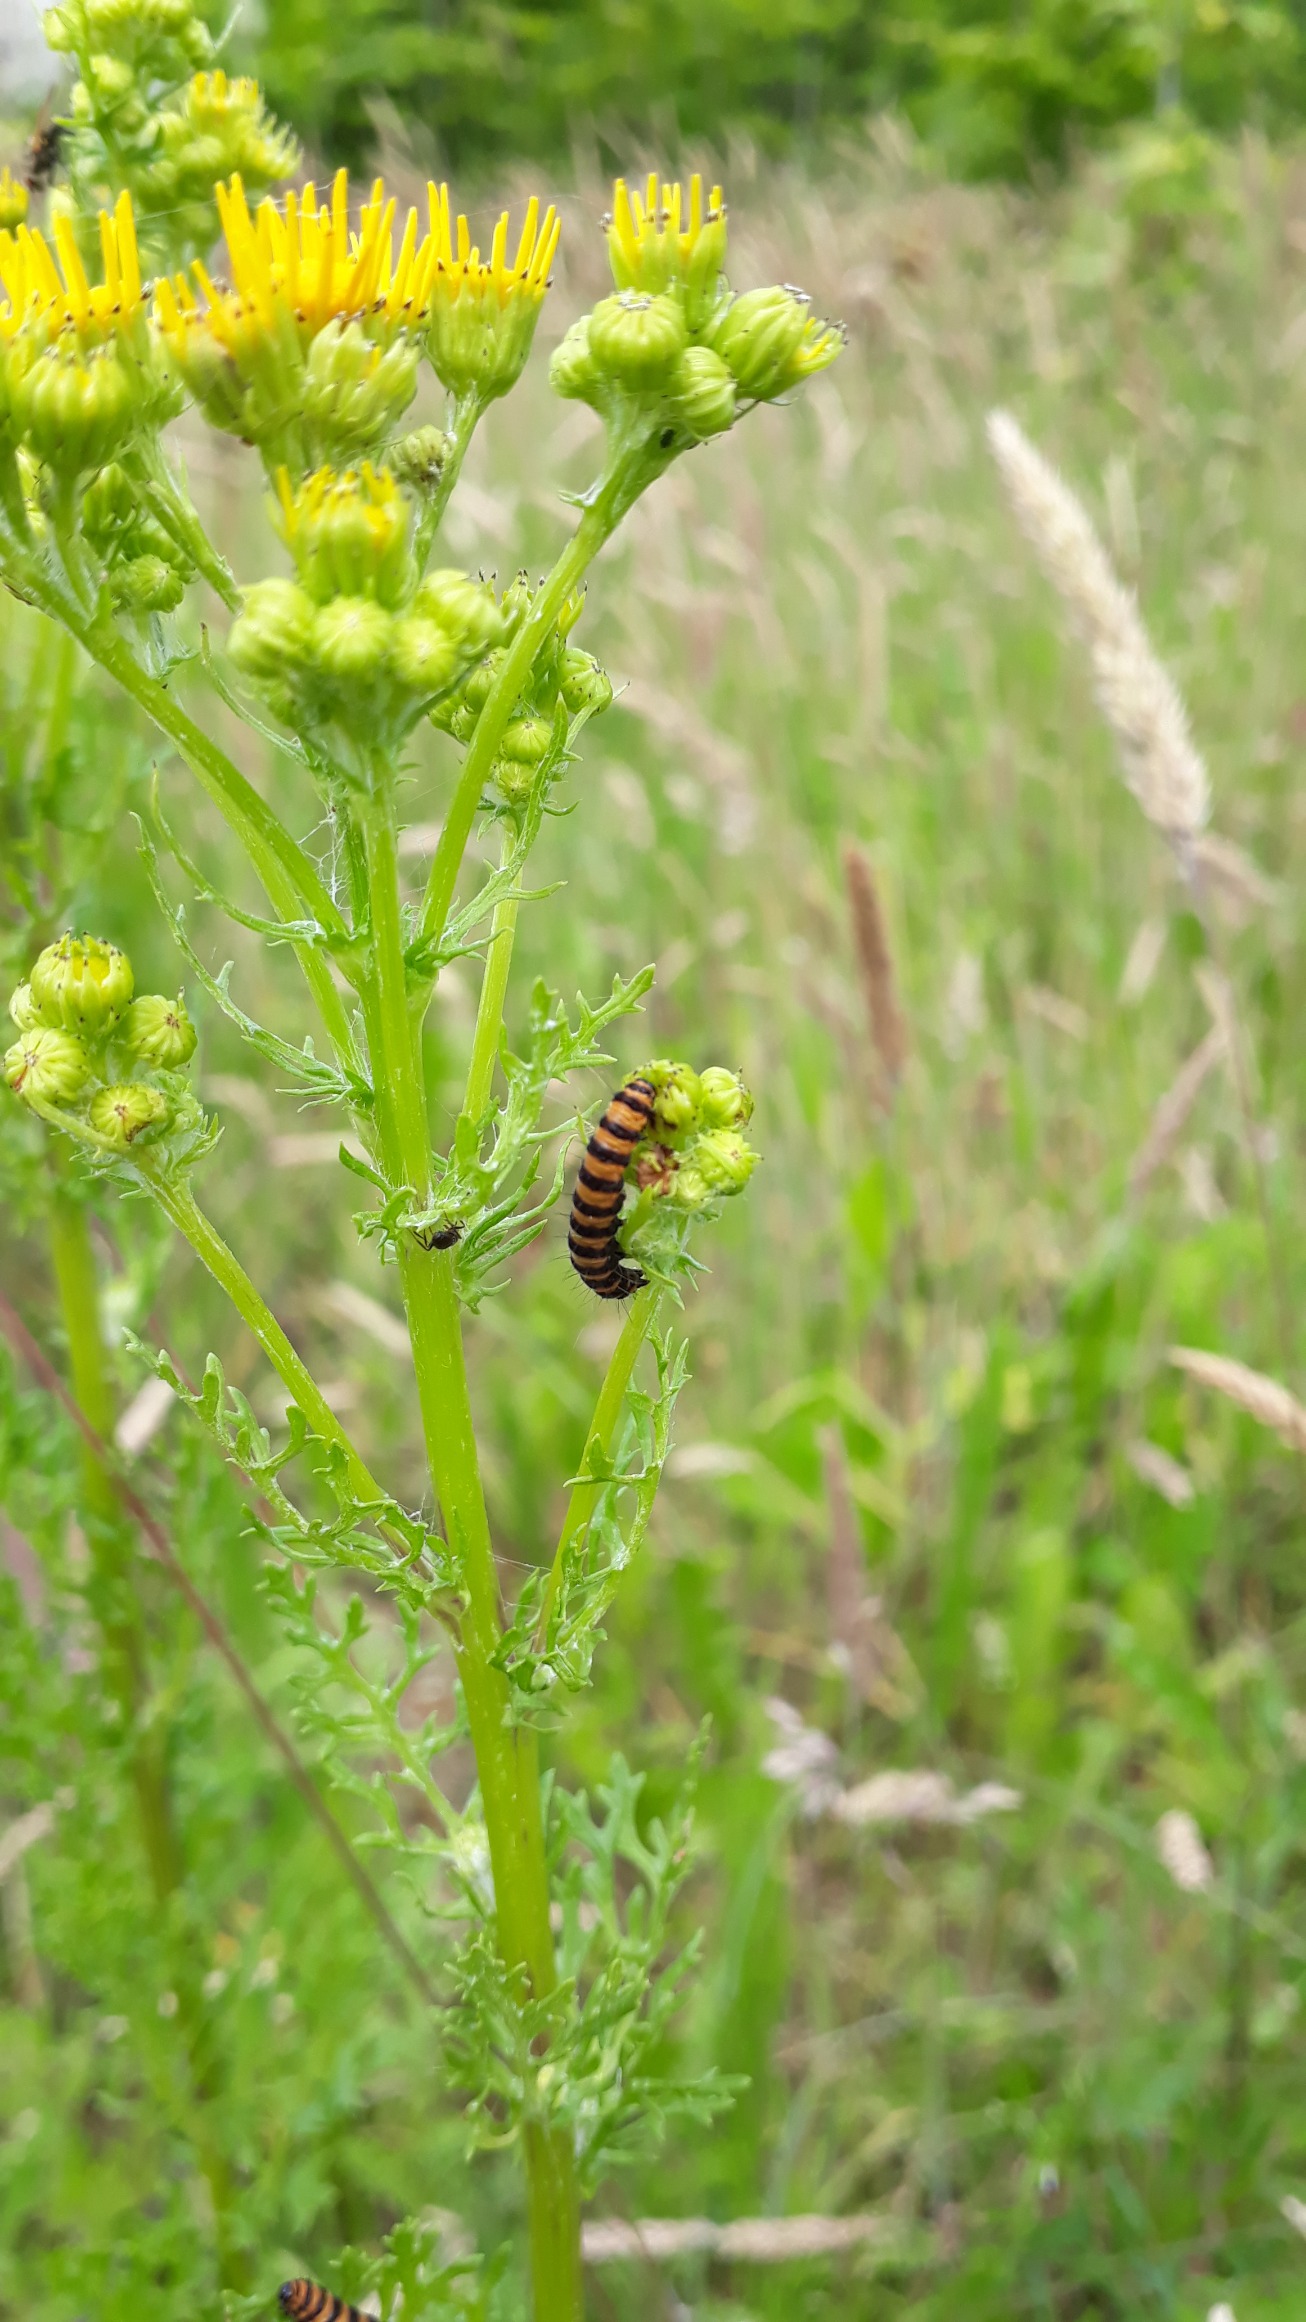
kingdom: Animalia
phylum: Arthropoda
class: Insecta
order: Lepidoptera
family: Erebidae
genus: Tyria
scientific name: Tyria jacobaeae
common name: Blodplet
